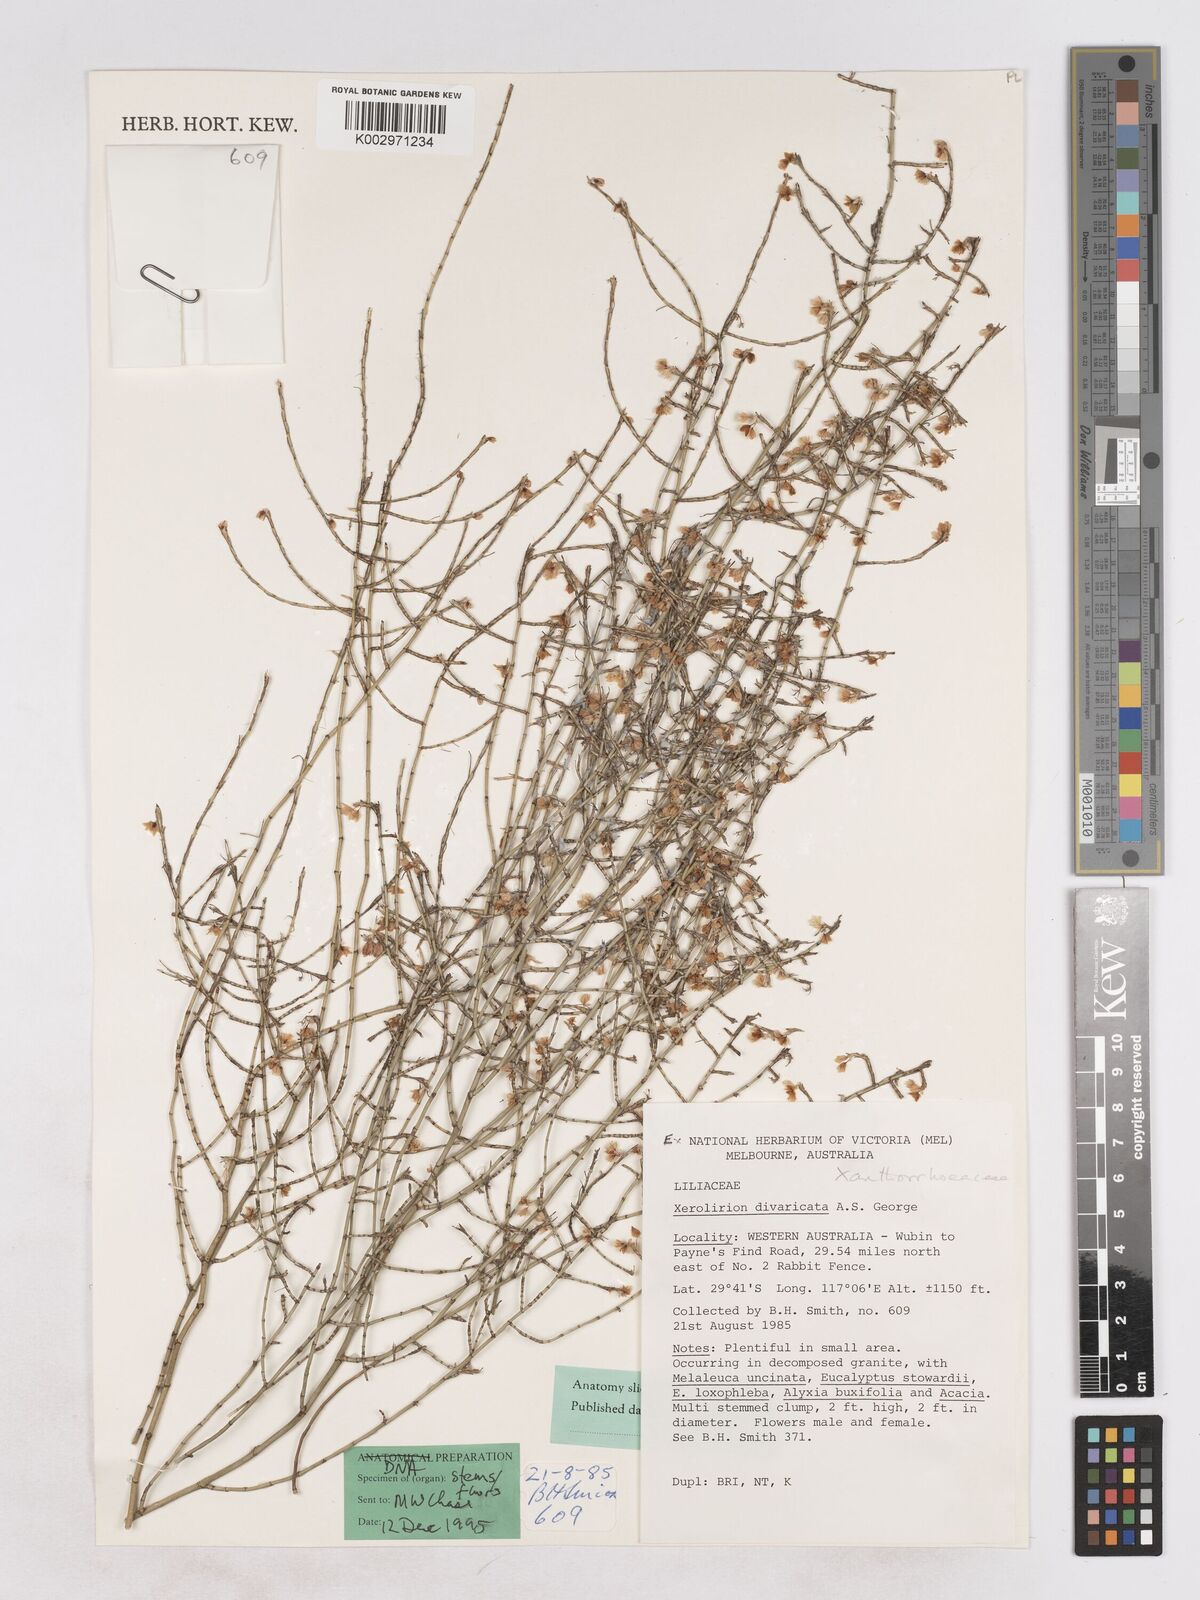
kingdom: Plantae
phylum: Tracheophyta
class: Liliopsida
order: Asparagales
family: Asparagaceae
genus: Xerolirion
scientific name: Xerolirion divaricata
